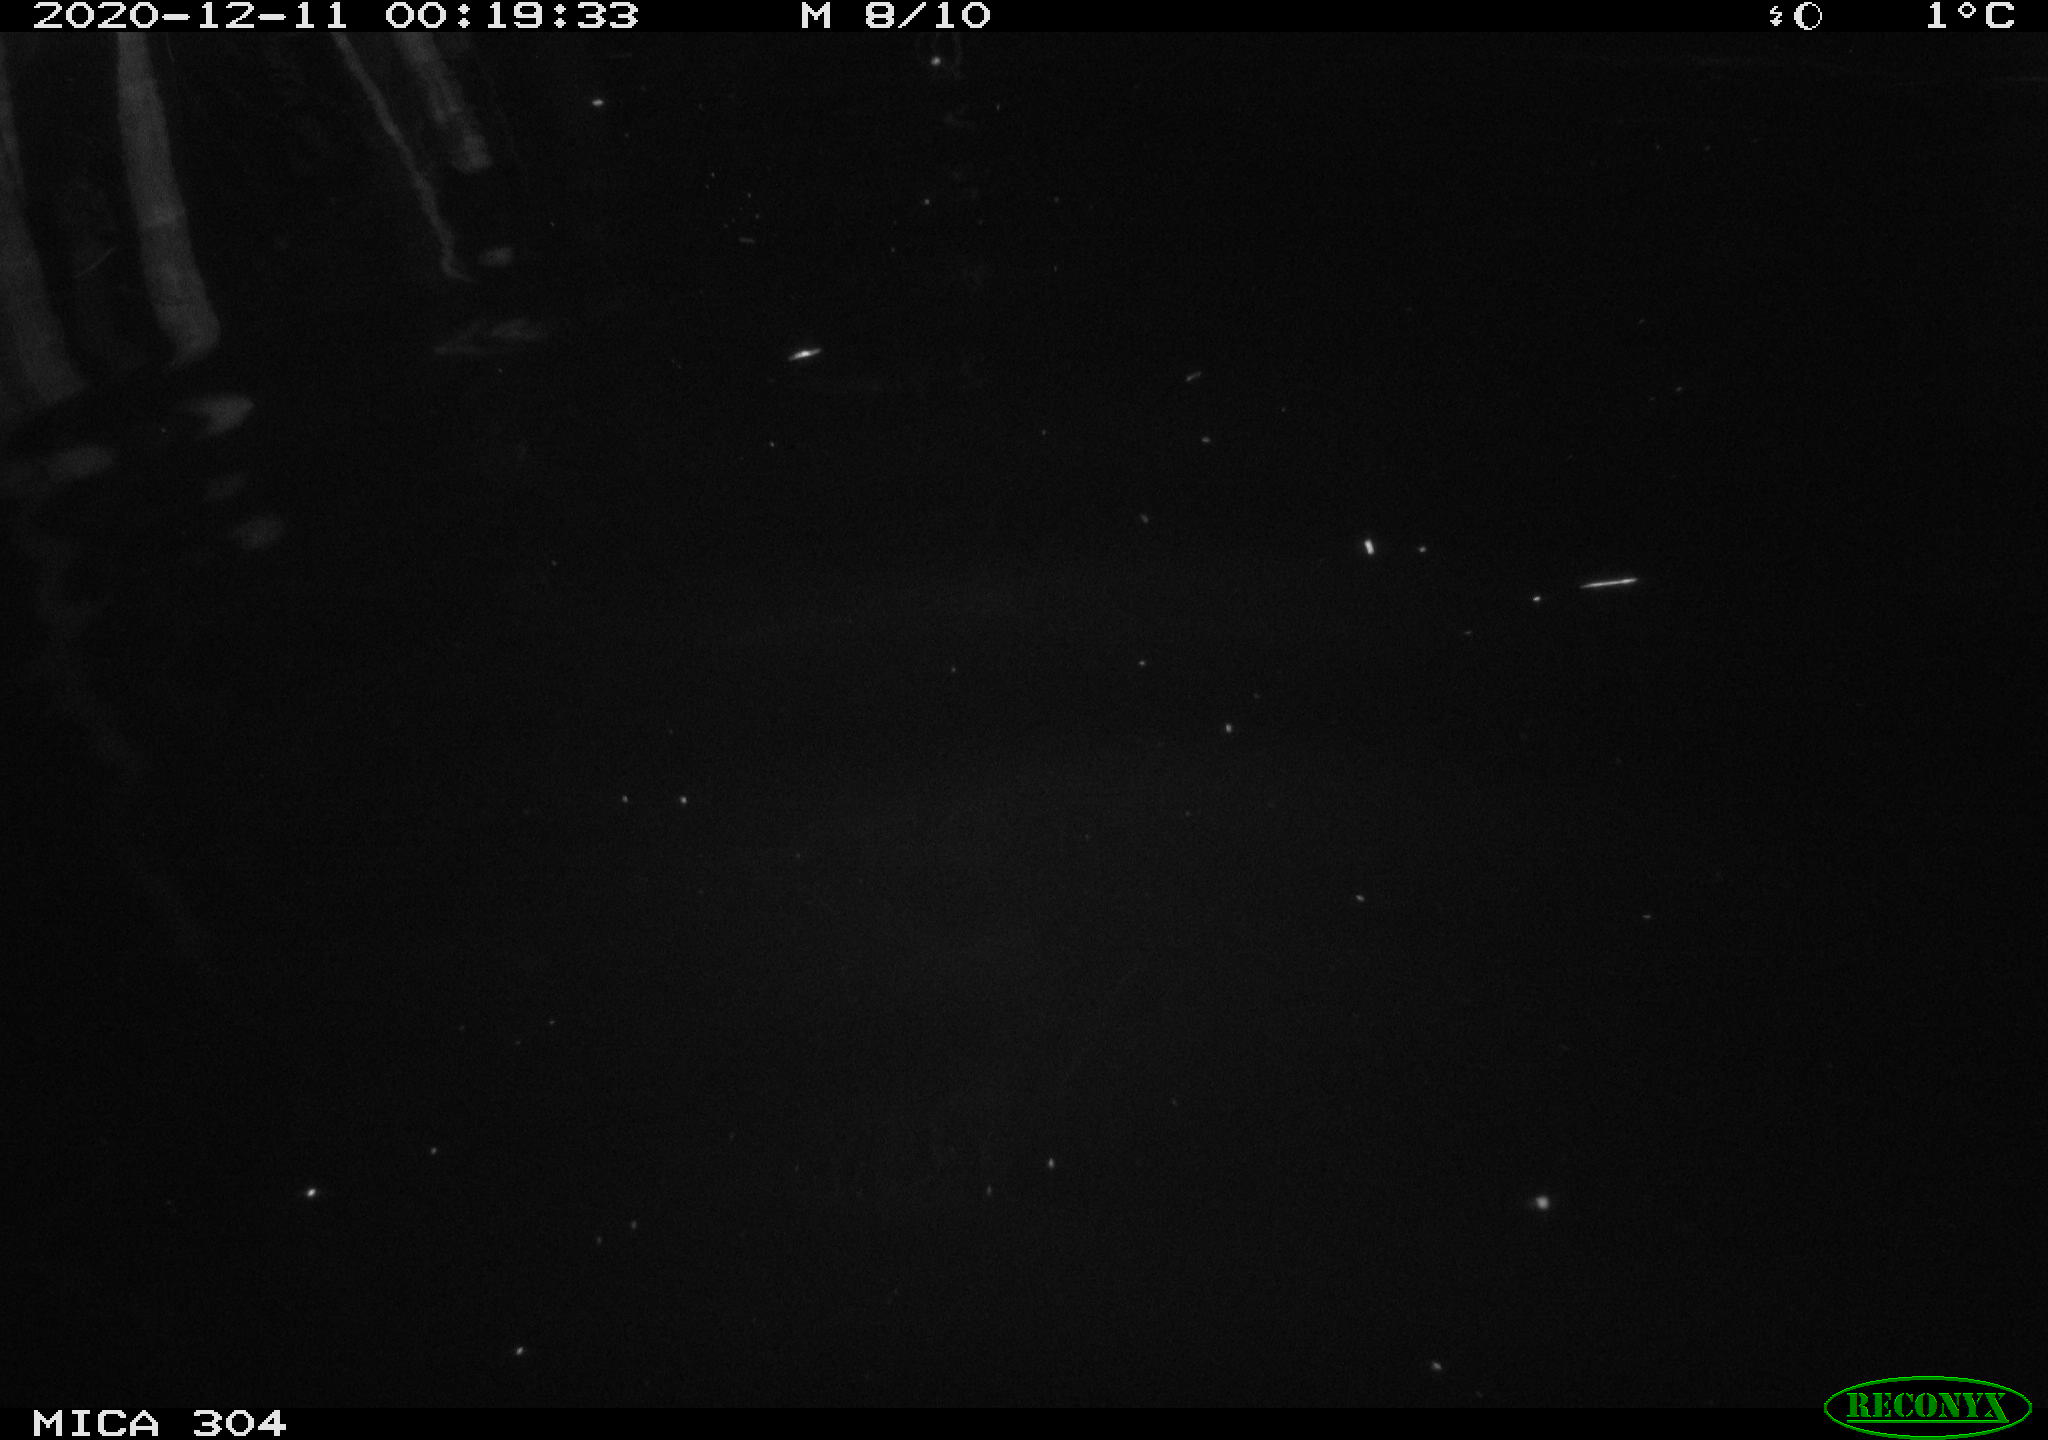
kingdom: Animalia
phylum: Chordata
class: Aves
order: Anseriformes
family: Anatidae
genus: Anas
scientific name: Anas platyrhynchos
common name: Mallard
